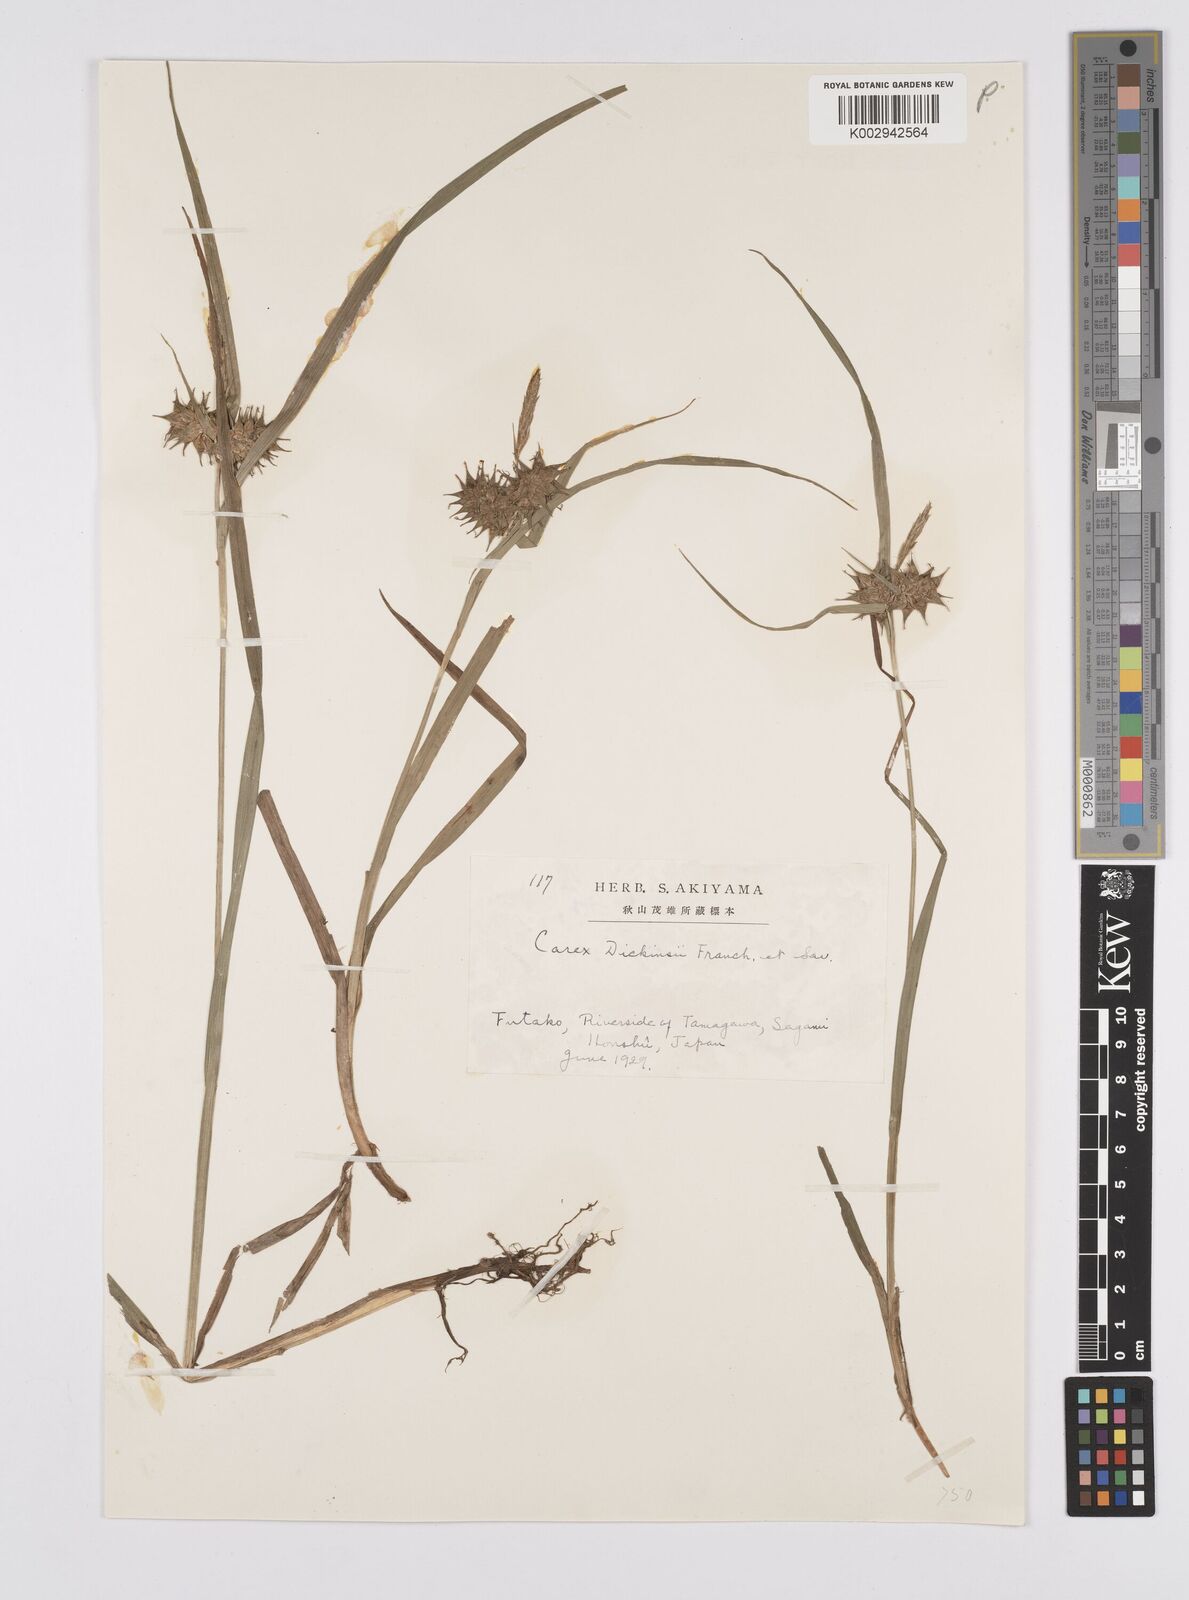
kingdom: Plantae
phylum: Tracheophyta
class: Liliopsida
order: Poales
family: Cyperaceae
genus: Carex
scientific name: Carex dickinsii
